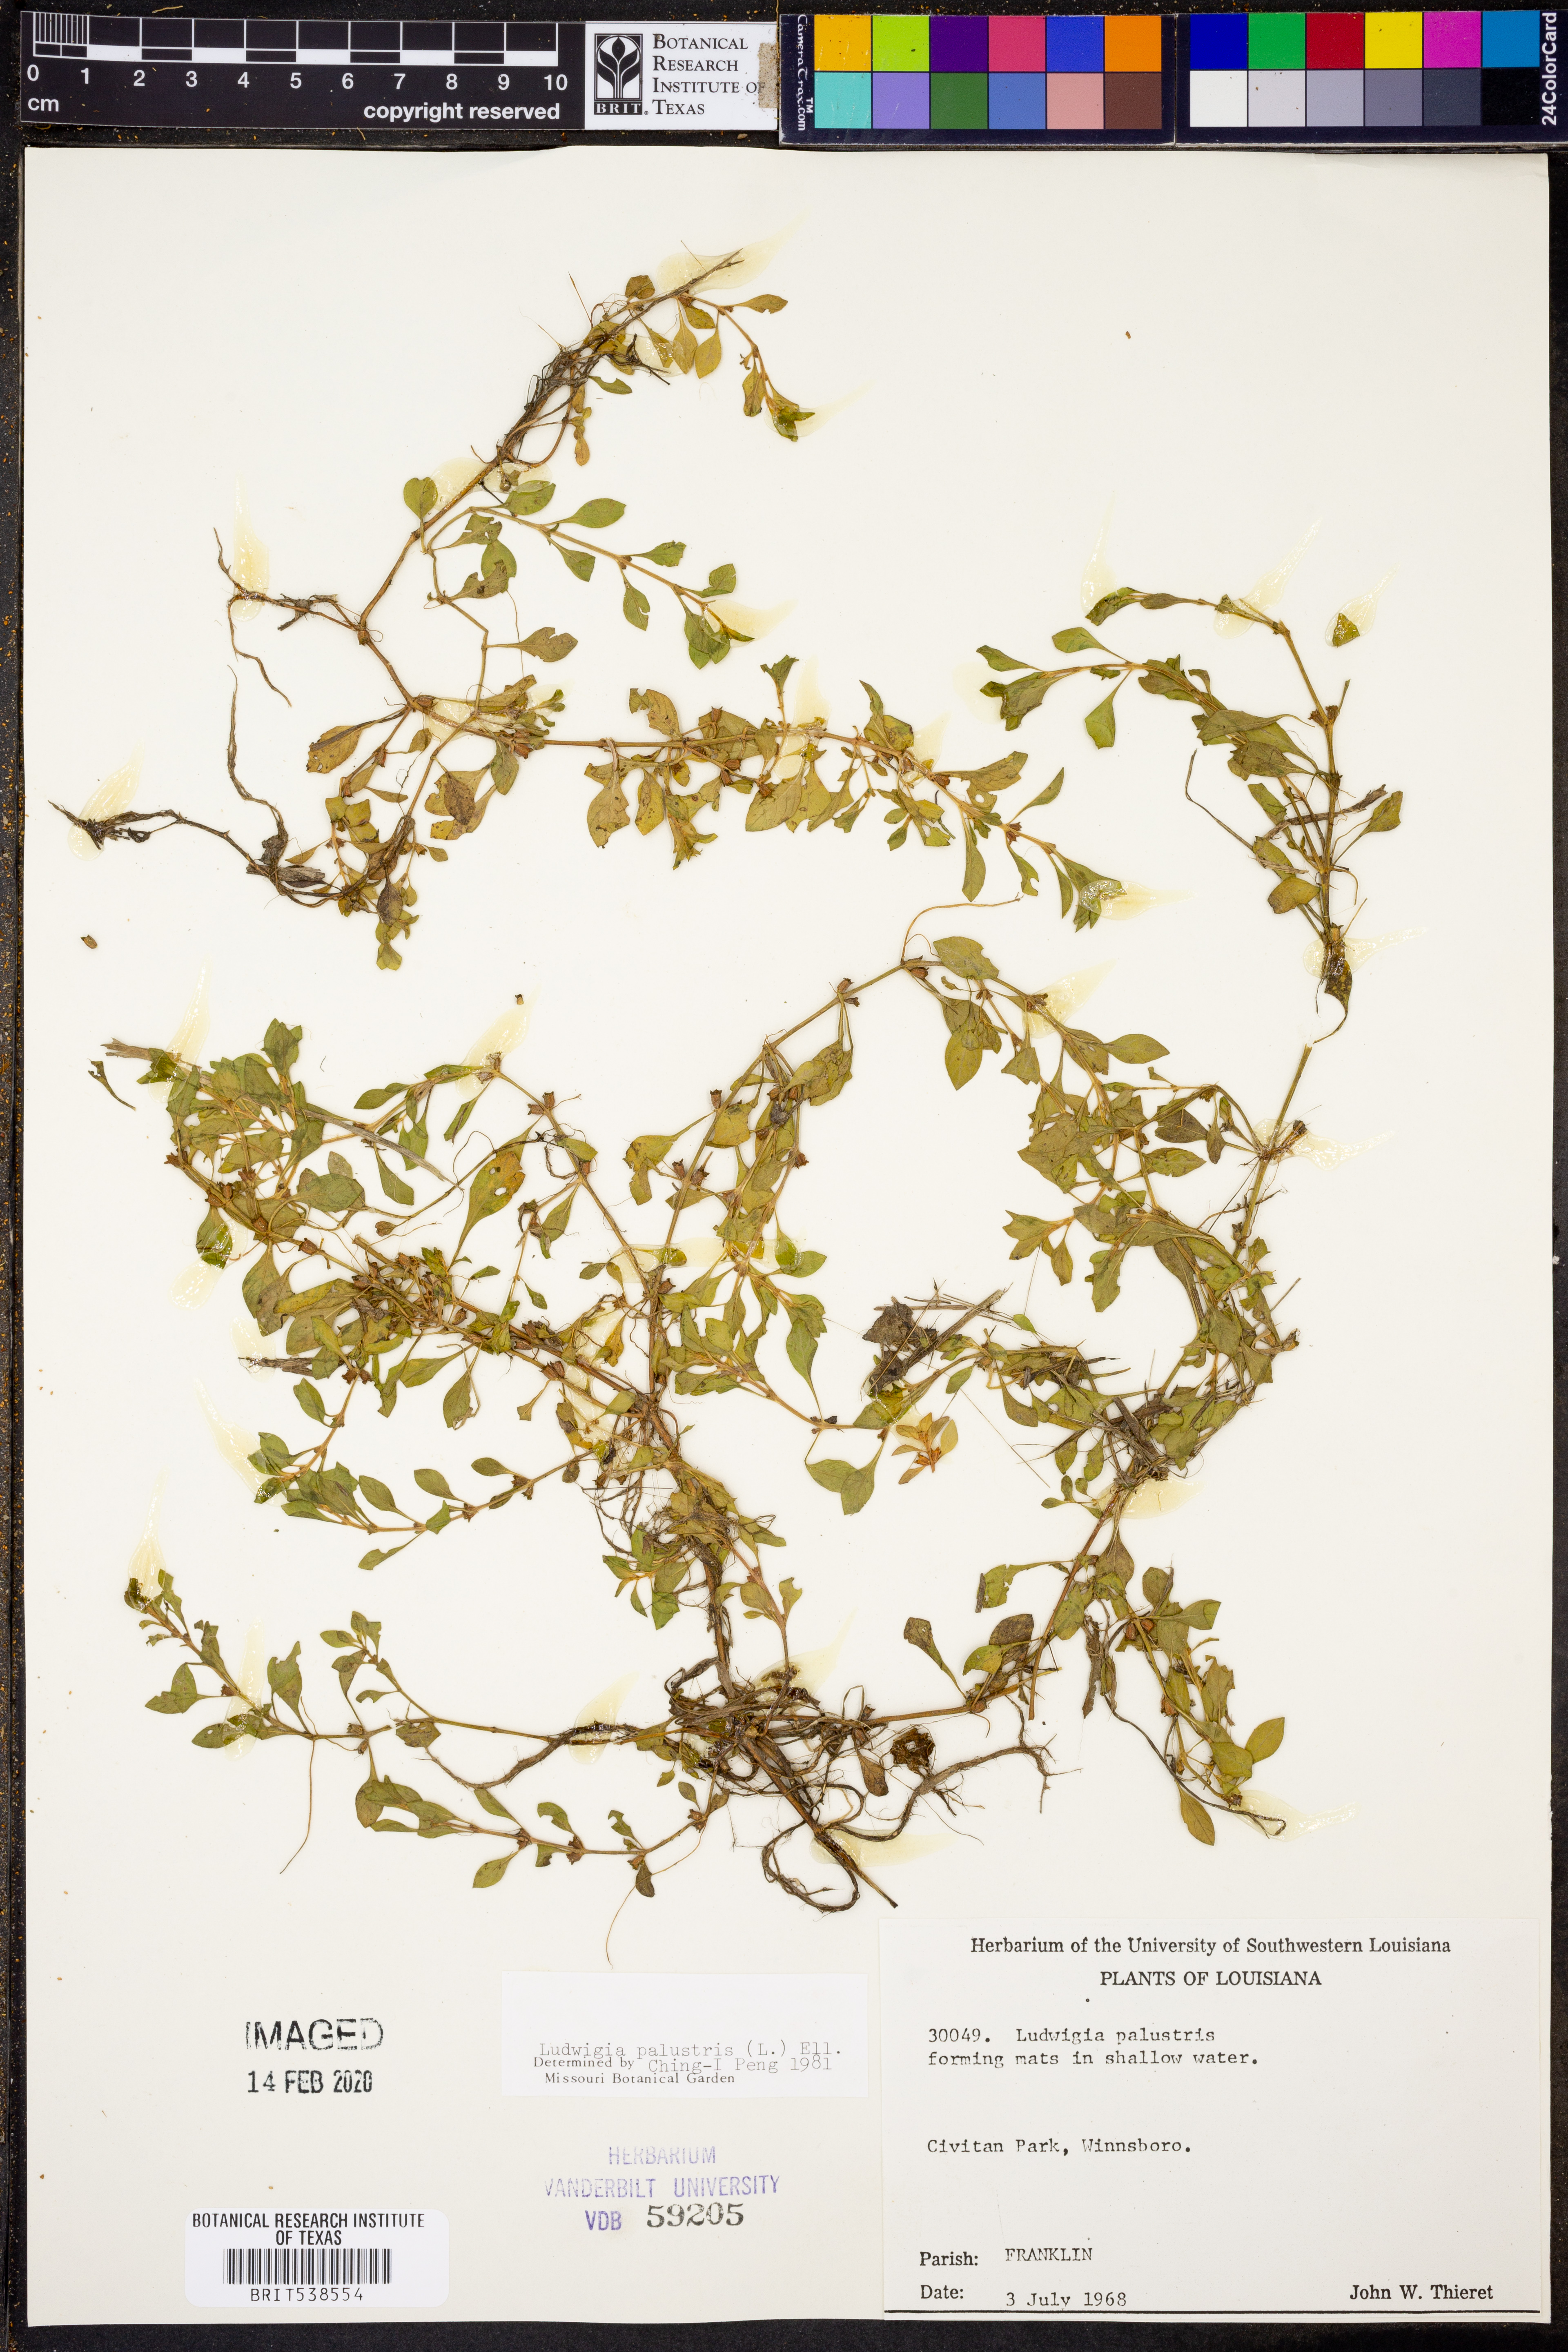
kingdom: Plantae
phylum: Tracheophyta
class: Magnoliopsida
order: Myrtales
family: Onagraceae
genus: Ludwigia
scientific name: Ludwigia palustris
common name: Hampshire-purslane
